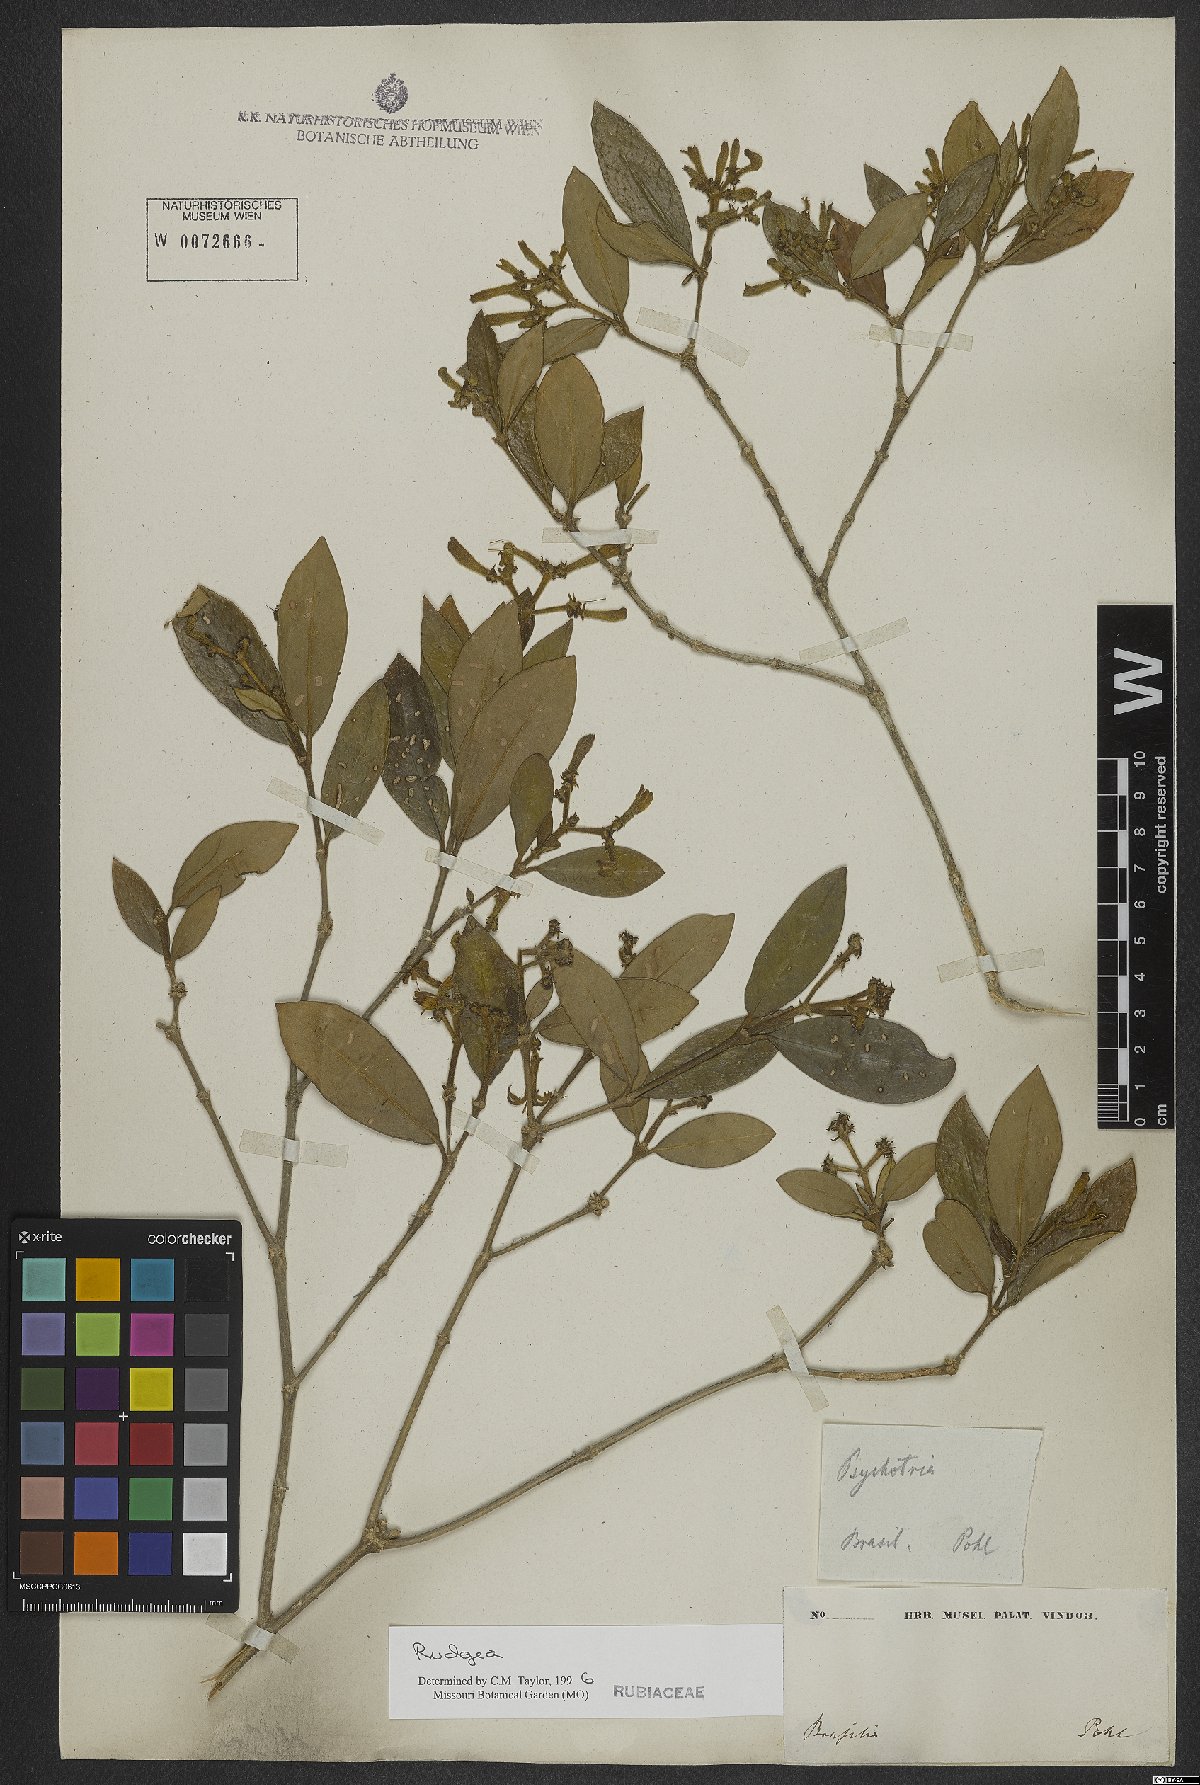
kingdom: Plantae
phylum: Tracheophyta
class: Magnoliopsida
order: Gentianales
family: Rubiaceae
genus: Rudgea
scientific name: Rudgea
